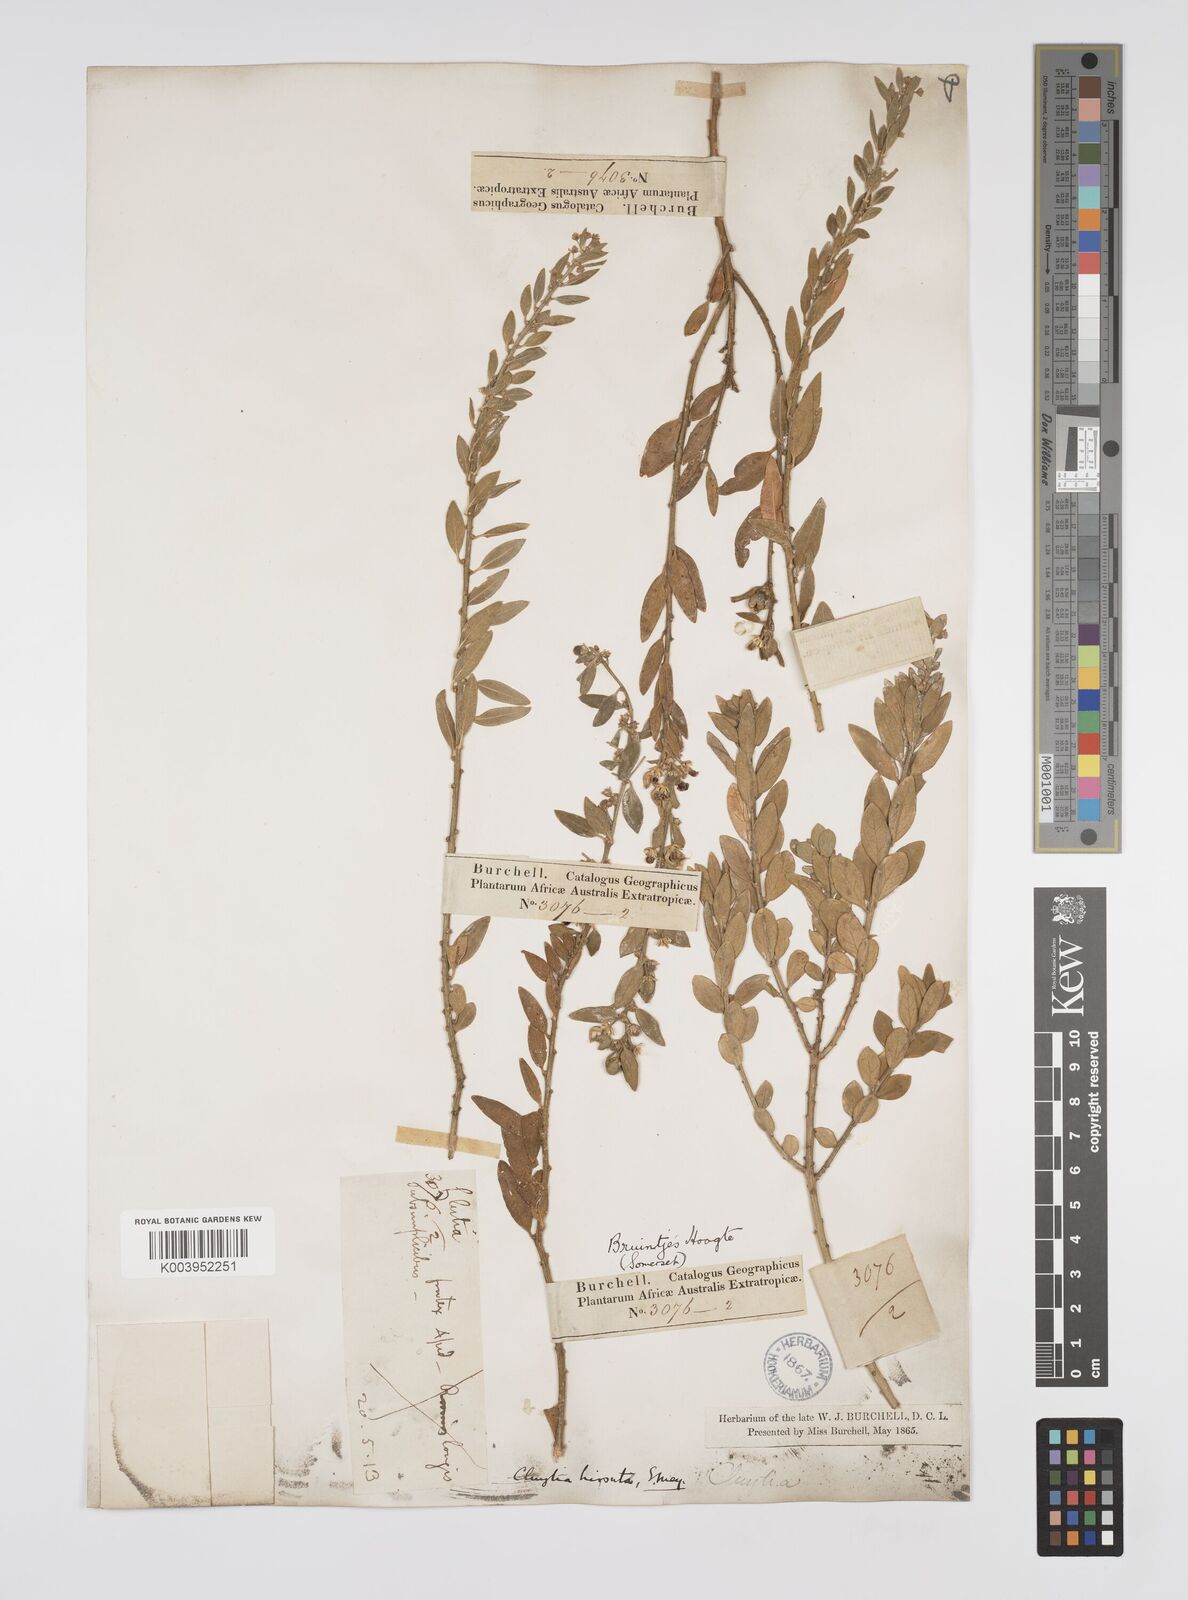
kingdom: Plantae
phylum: Tracheophyta
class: Magnoliopsida
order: Malpighiales
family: Peraceae
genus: Clutia
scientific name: Clutia affinis
